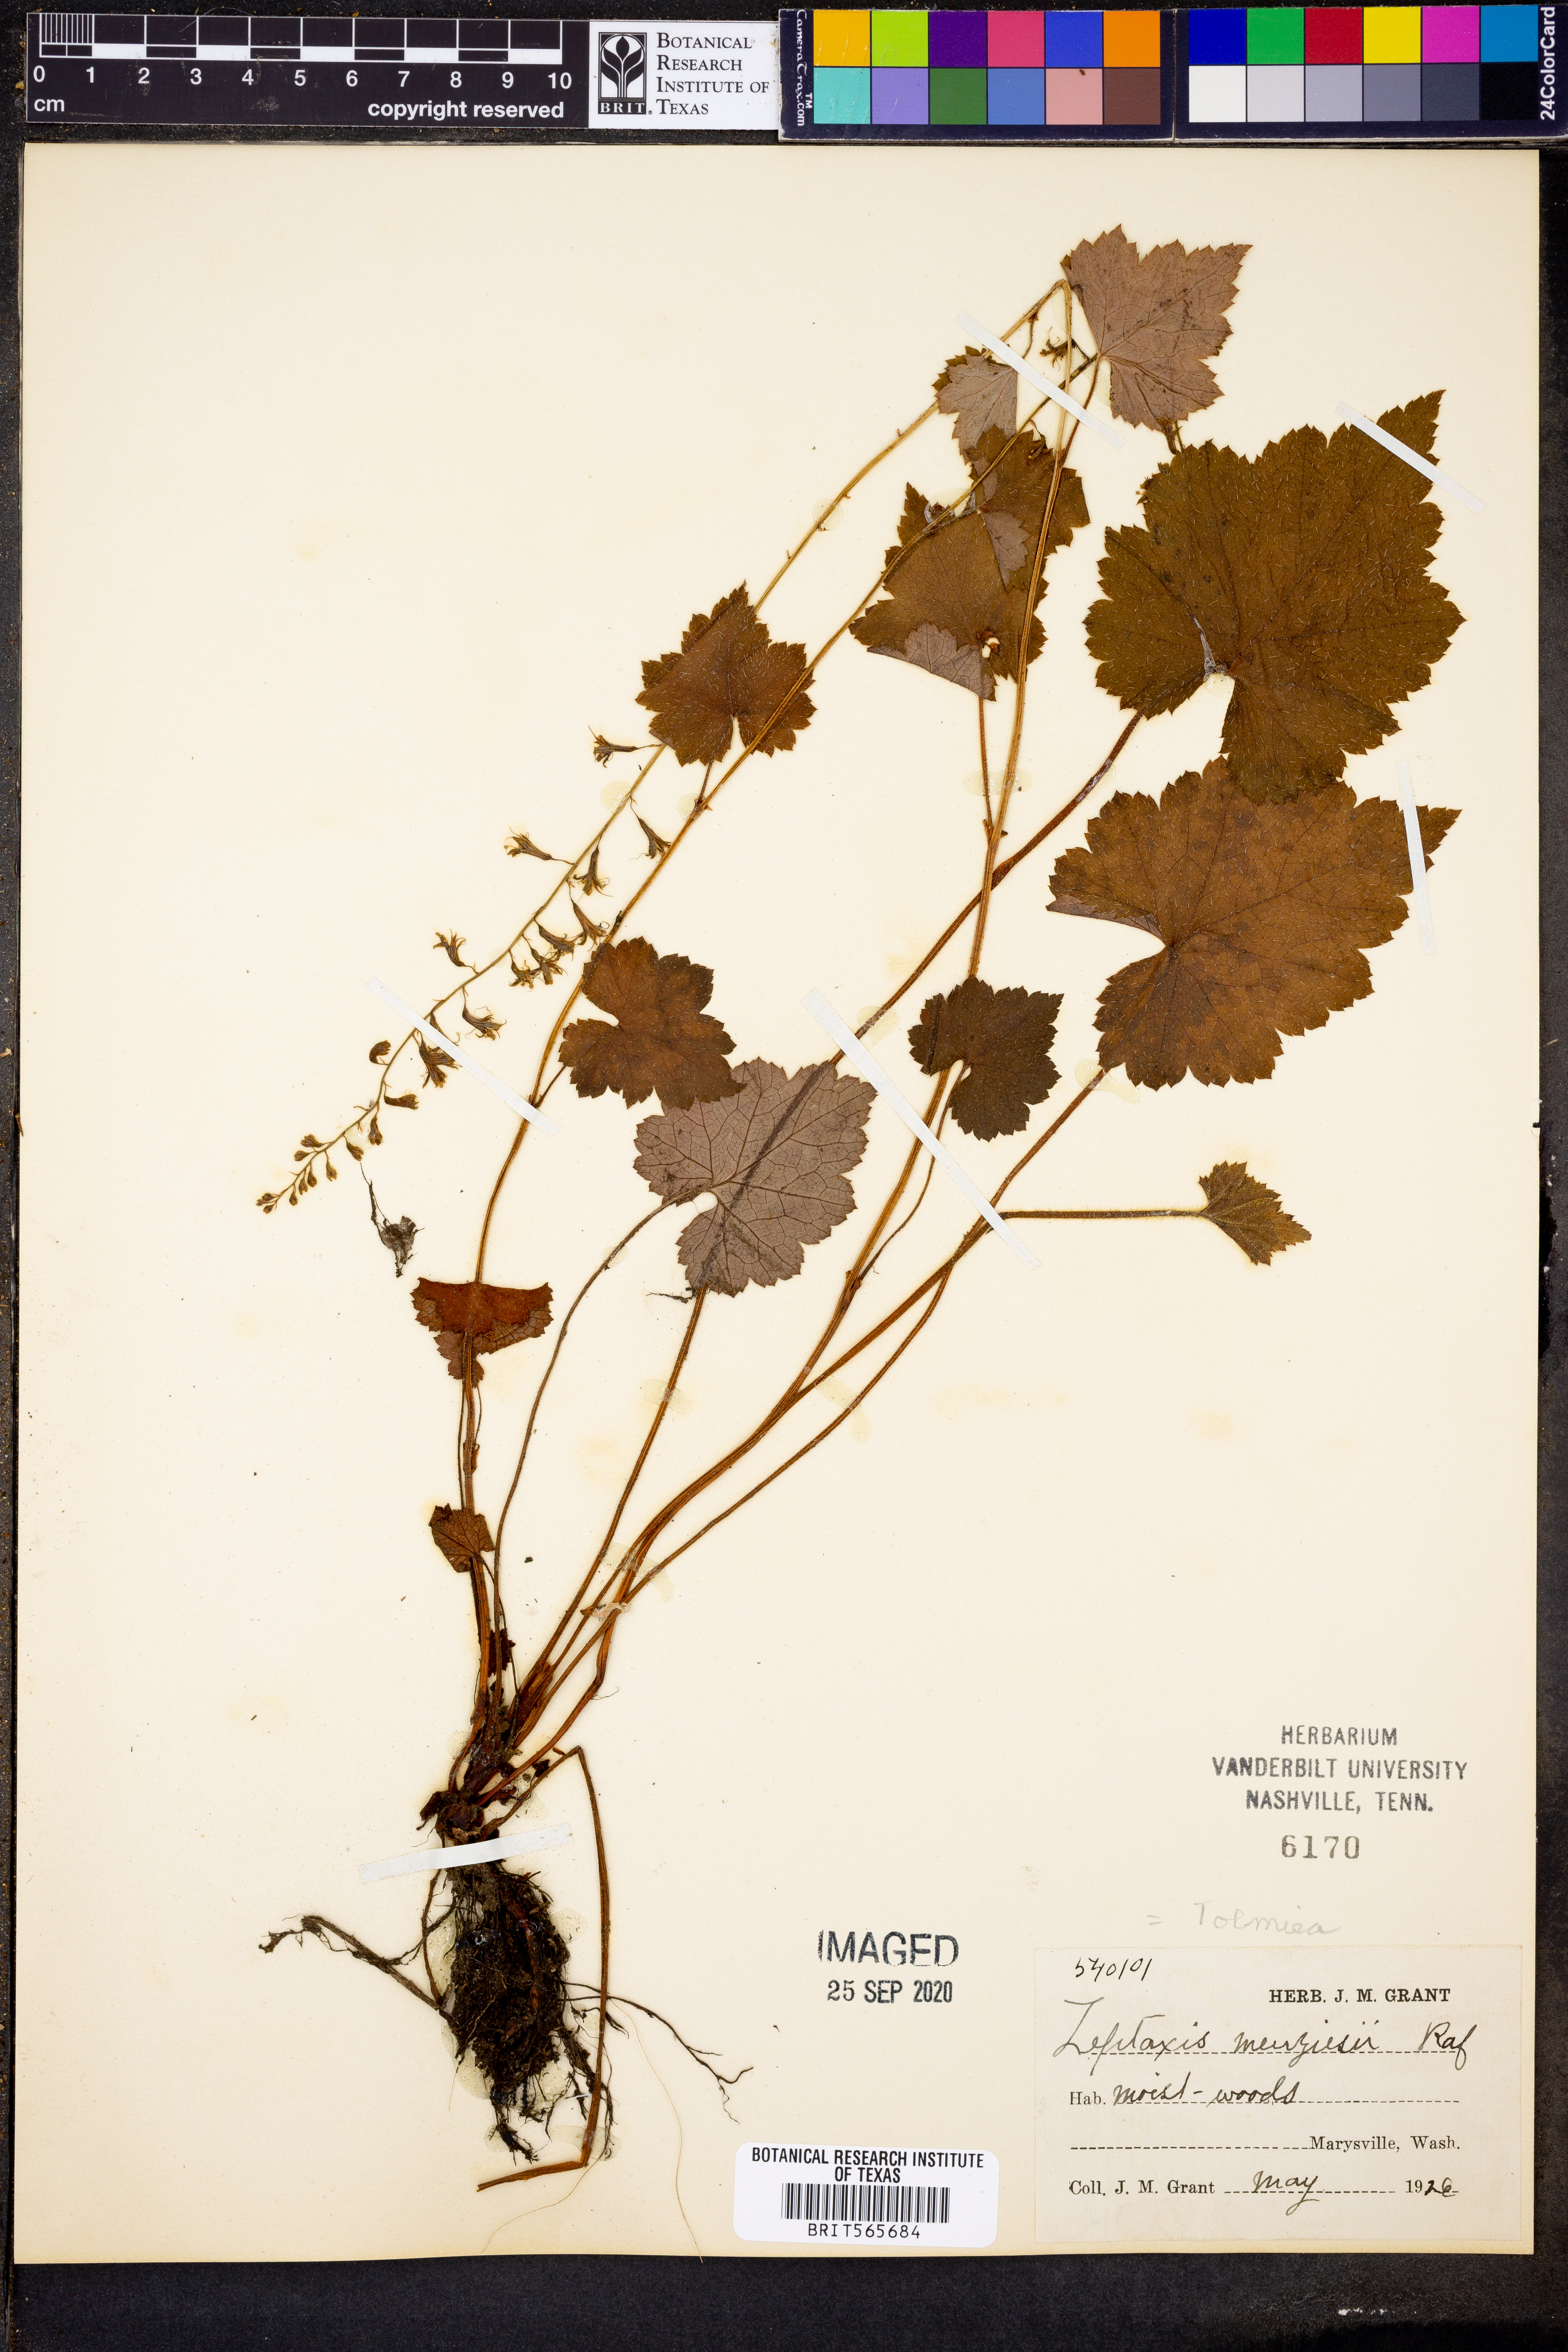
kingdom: Plantae
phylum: Tracheophyta
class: Magnoliopsida
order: Saxifragales
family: Saxifragaceae
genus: Tolmiea
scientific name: Tolmiea menziesii
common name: Pick-a-back-plant
